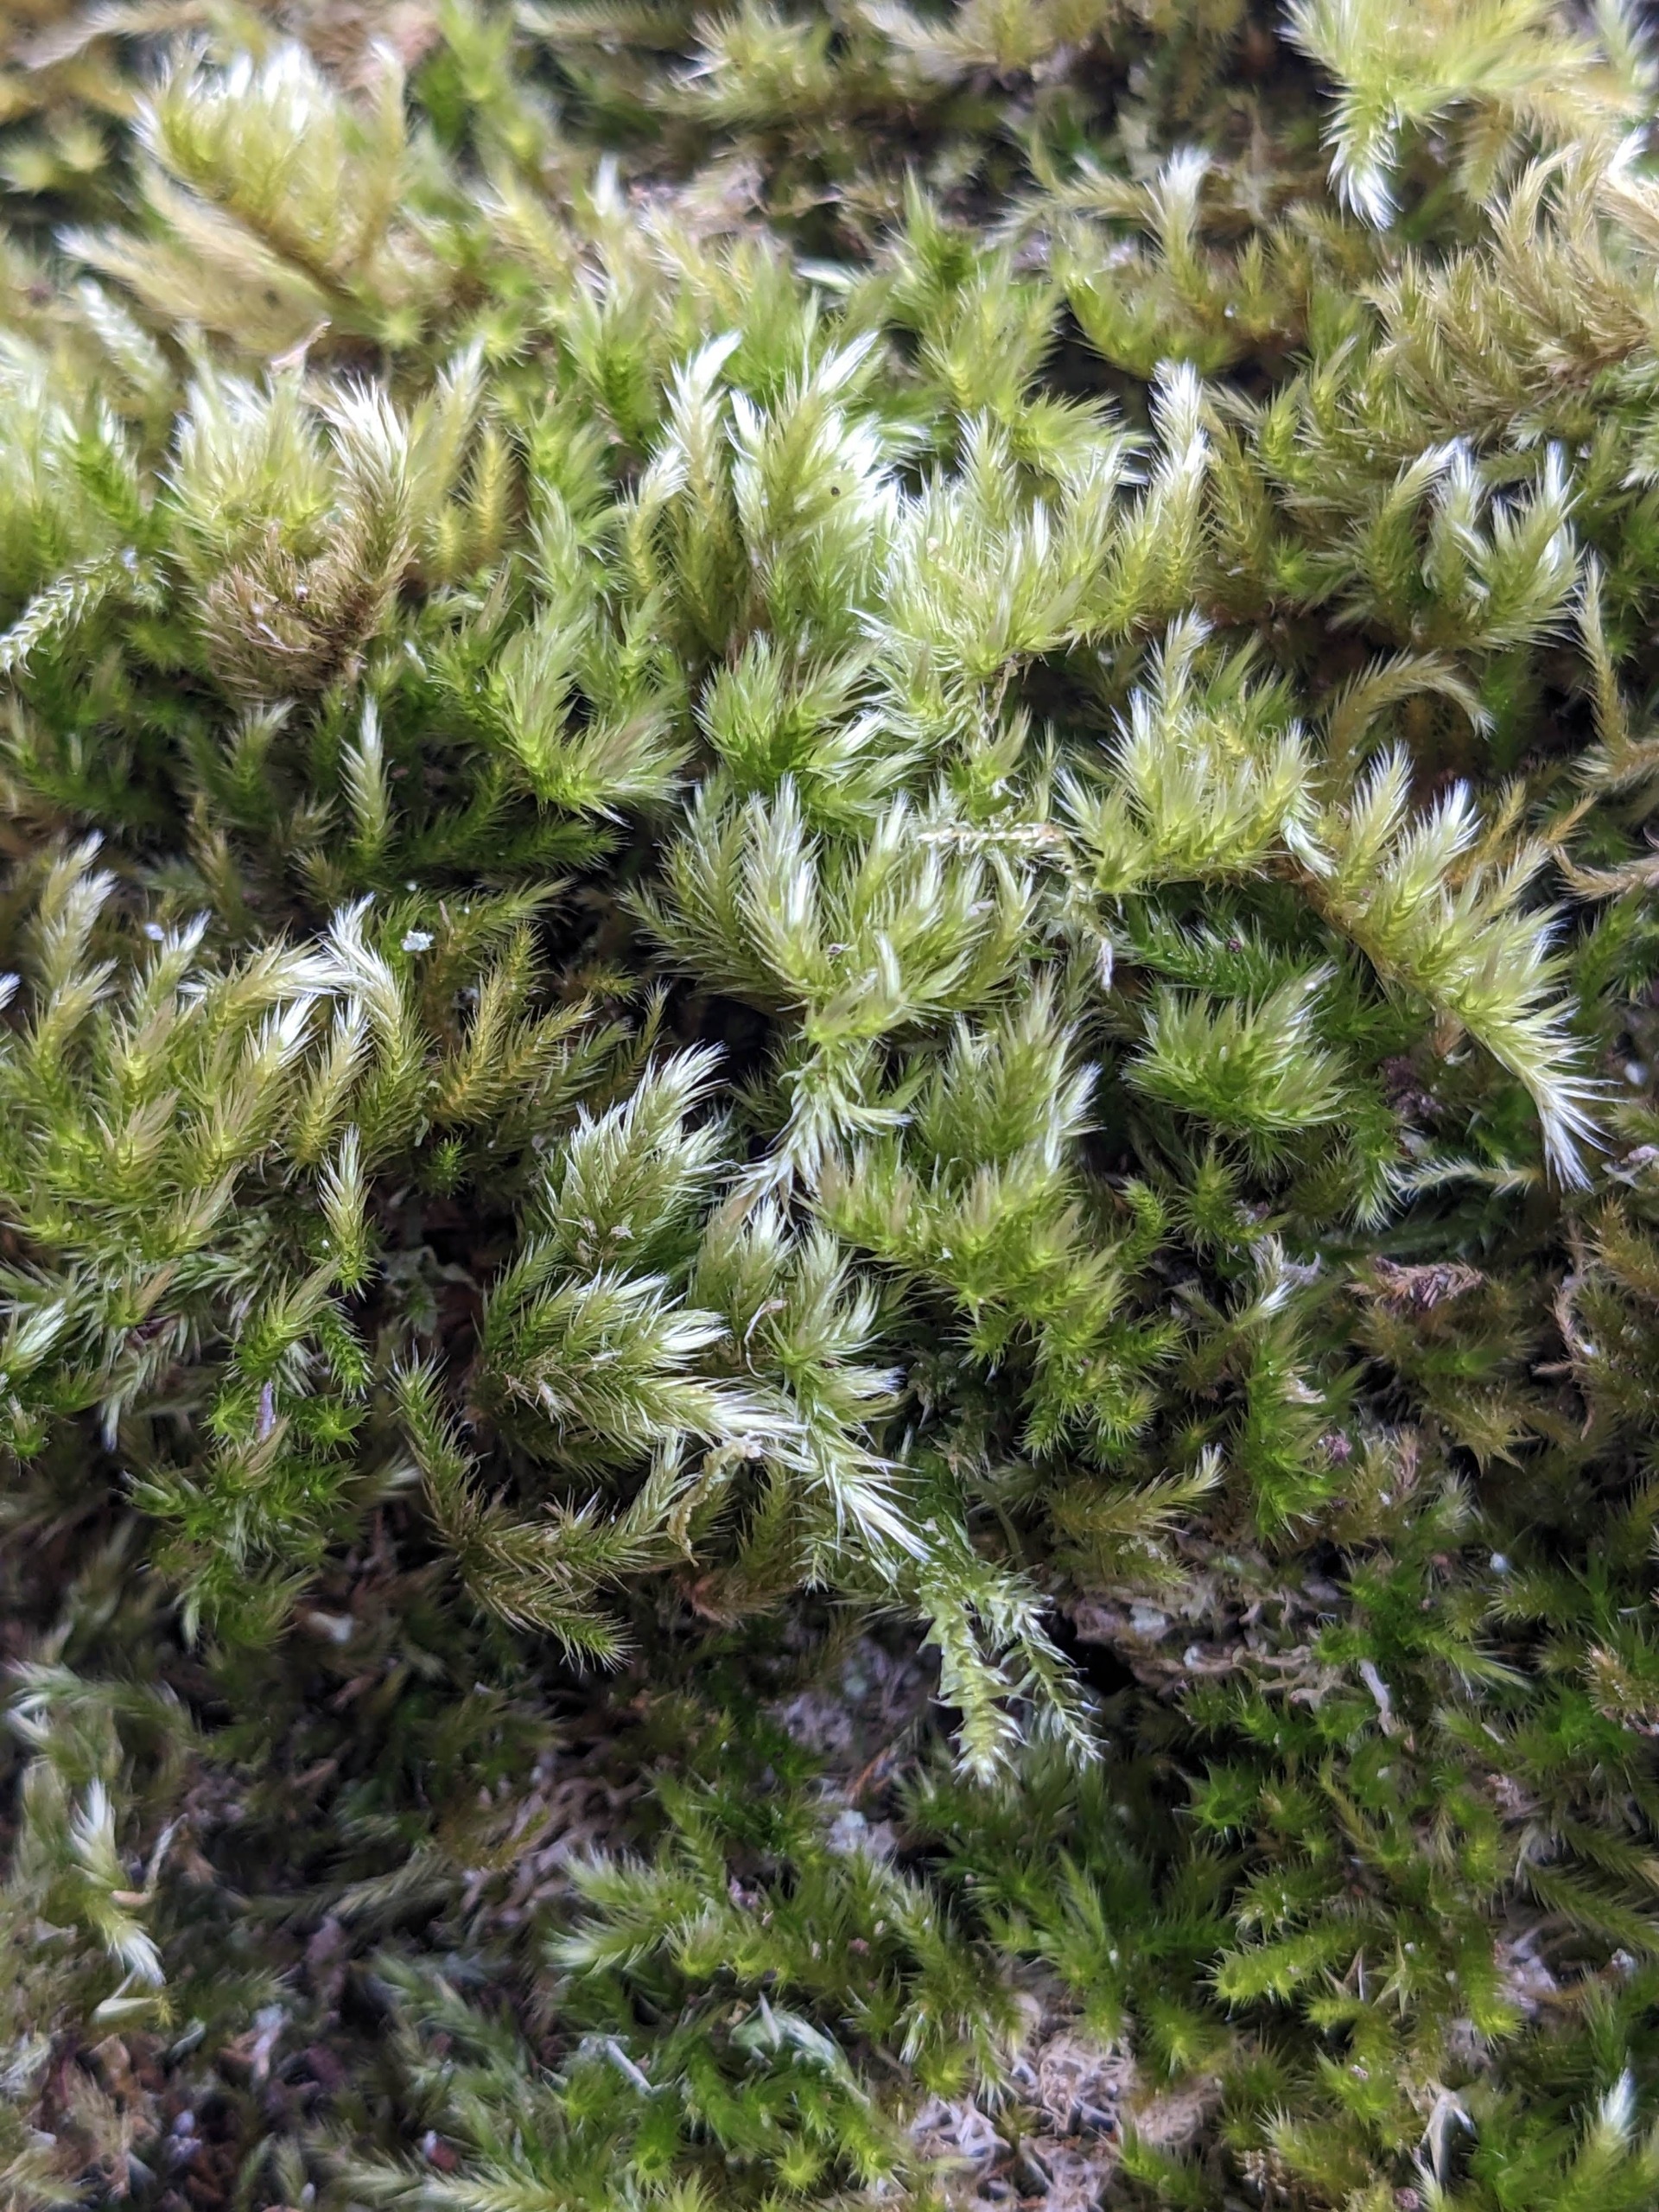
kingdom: Plantae
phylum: Bryophyta
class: Bryopsida
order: Hypnales
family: Brachytheciaceae
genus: Homalothecium
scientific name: Homalothecium sericeum
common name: Krybende silkemos
